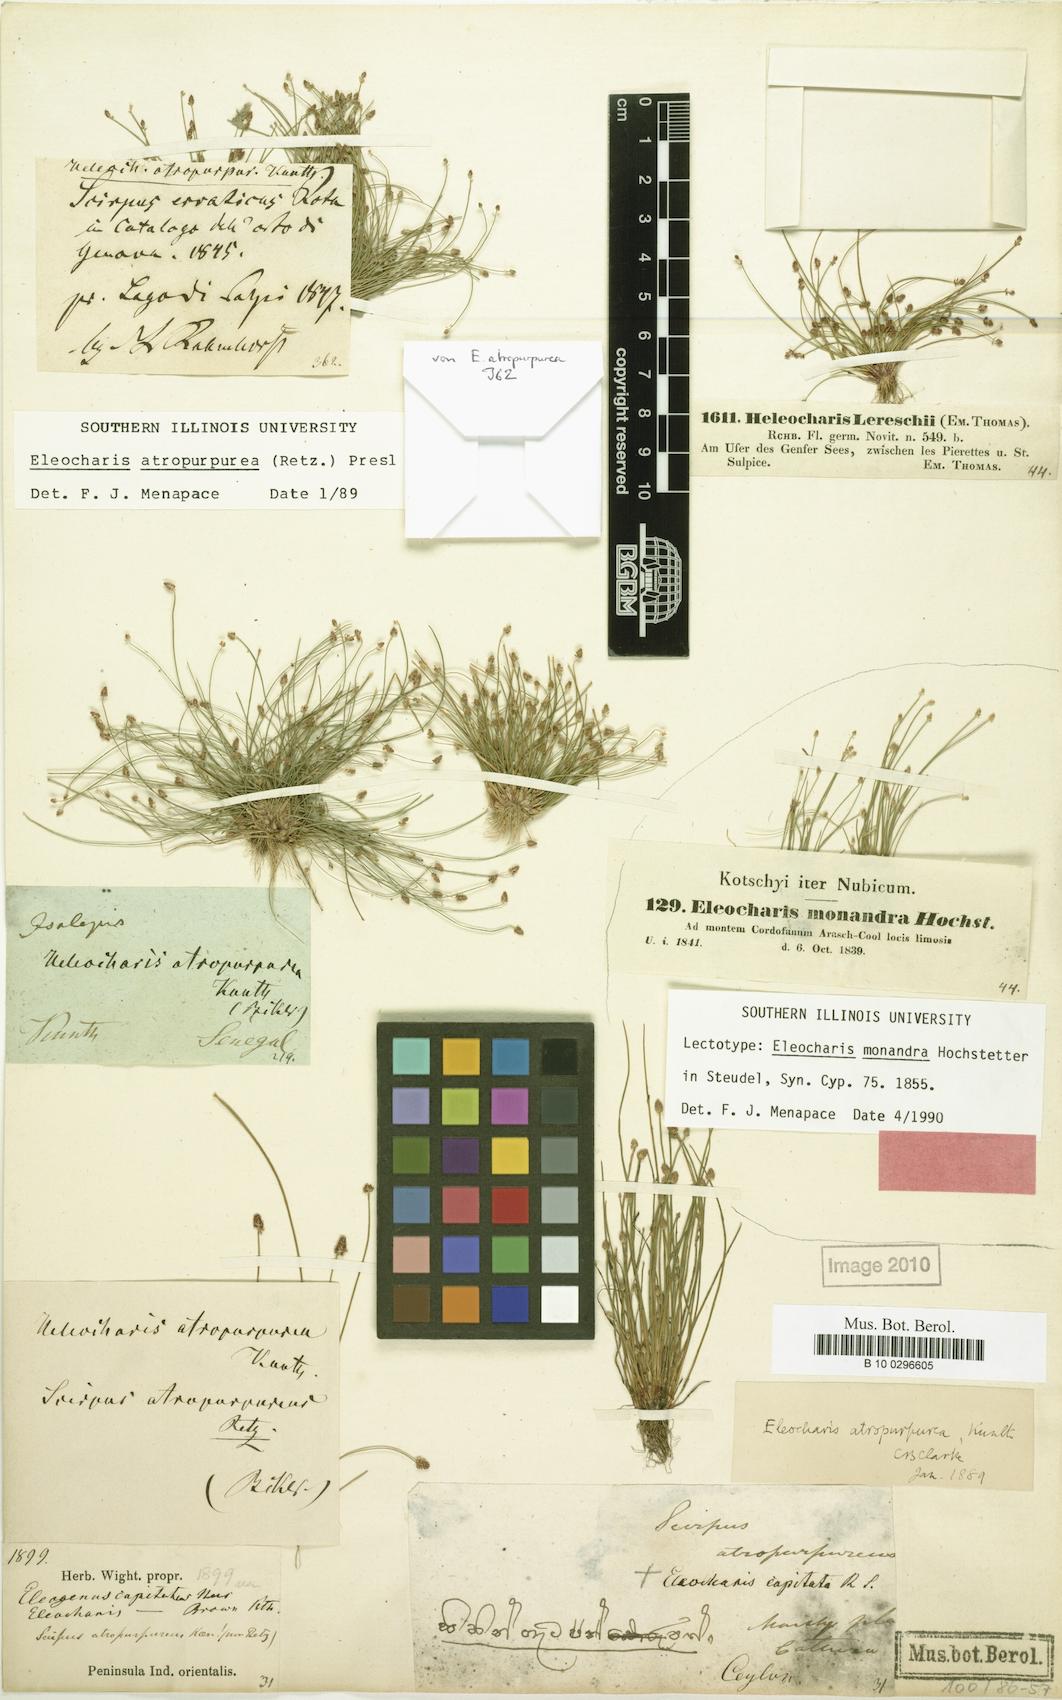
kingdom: Plantae
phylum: Tracheophyta
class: Liliopsida
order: Poales
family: Cyperaceae
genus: Eleocharis
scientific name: Eleocharis atropurpurea
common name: Purple spikerush
